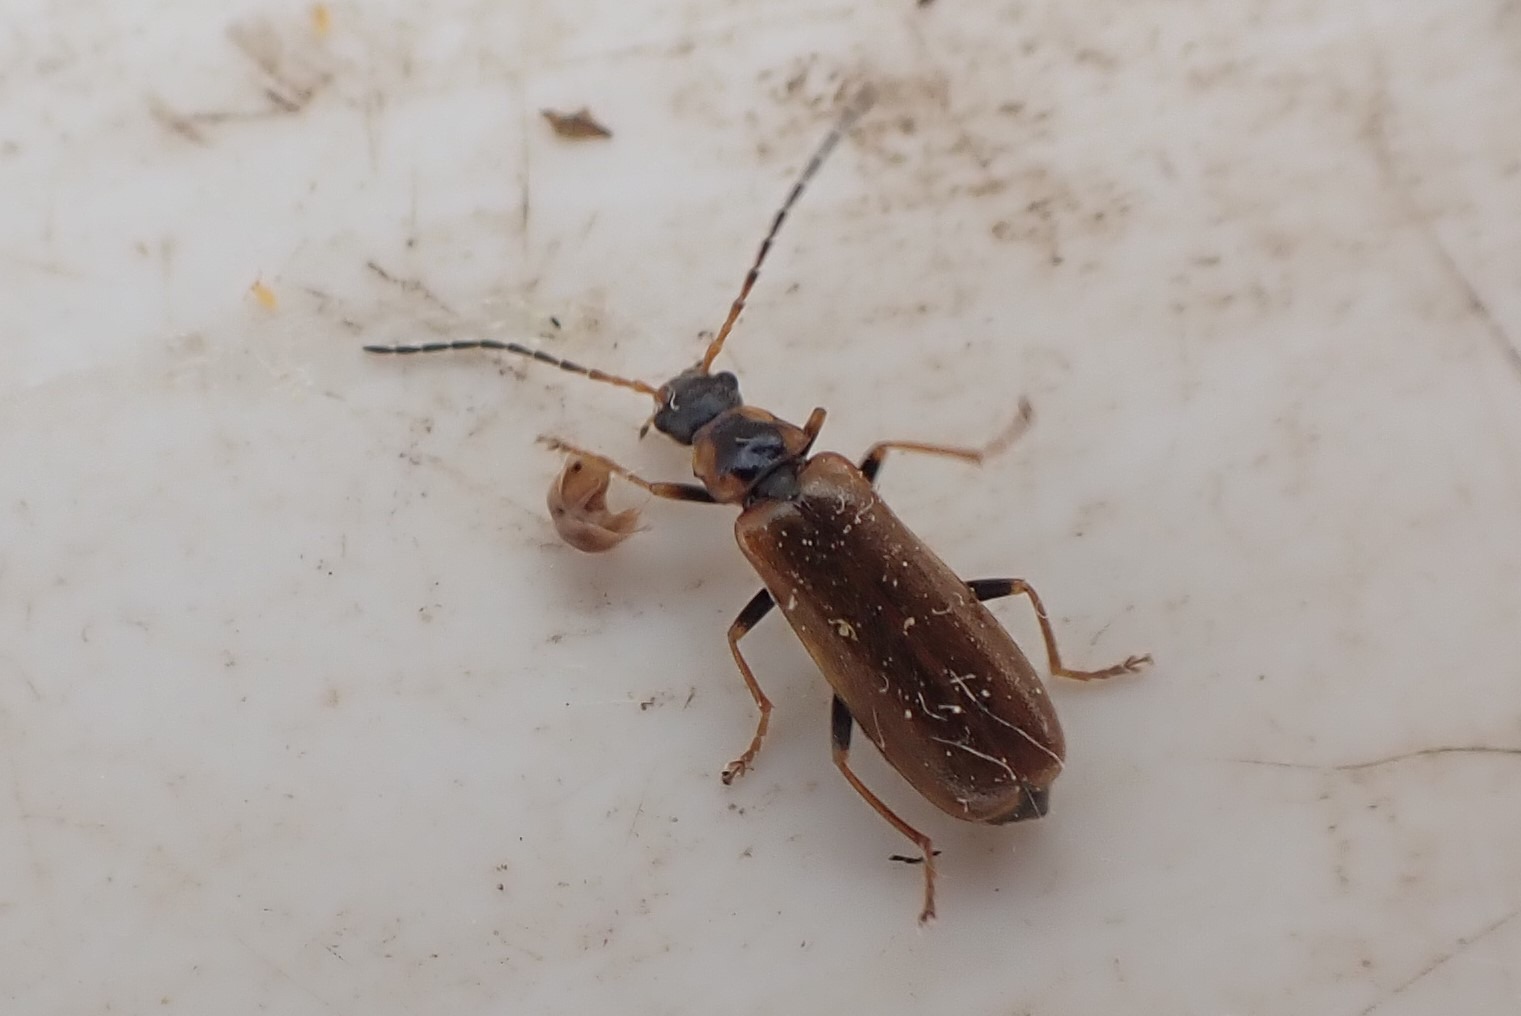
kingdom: Animalia
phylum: Arthropoda
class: Insecta
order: Coleoptera
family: Cantharidae
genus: Rhagonycha
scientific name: Rhagonycha nigriventris
